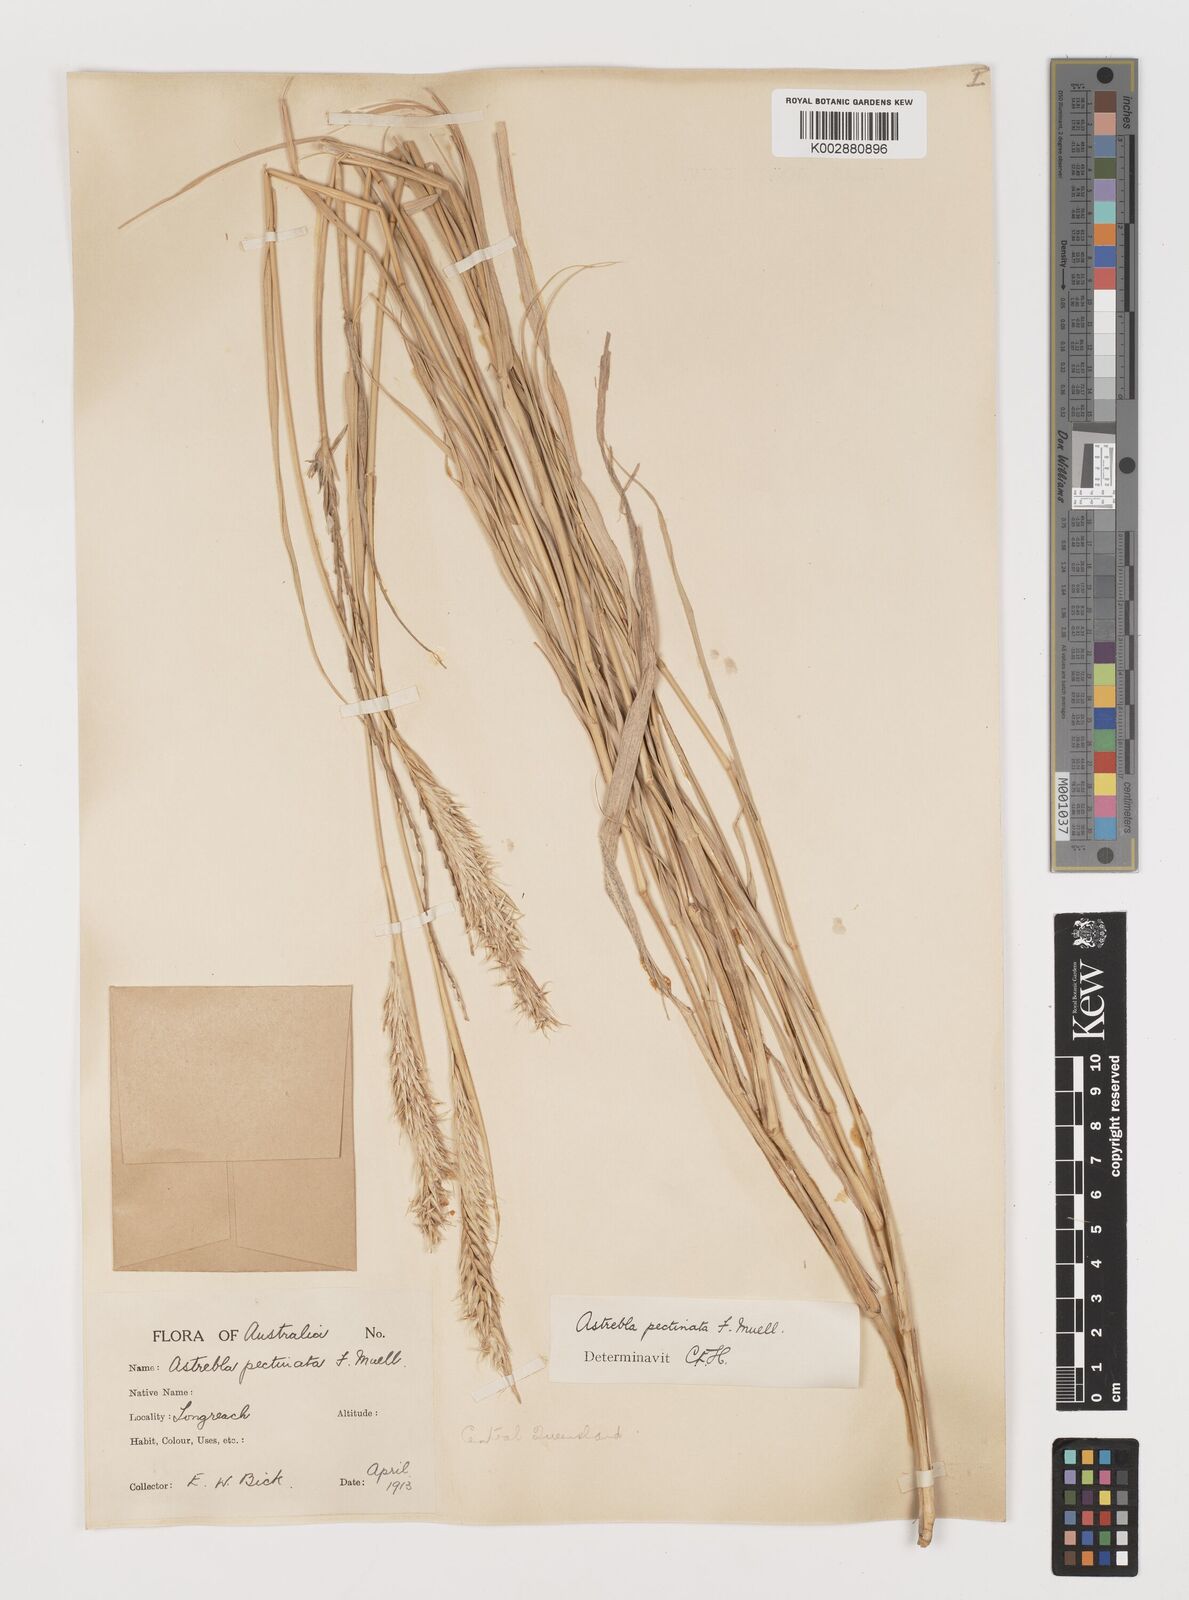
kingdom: Plantae
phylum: Tracheophyta
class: Liliopsida
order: Poales
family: Poaceae
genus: Astrebla
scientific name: Astrebla pectinata
